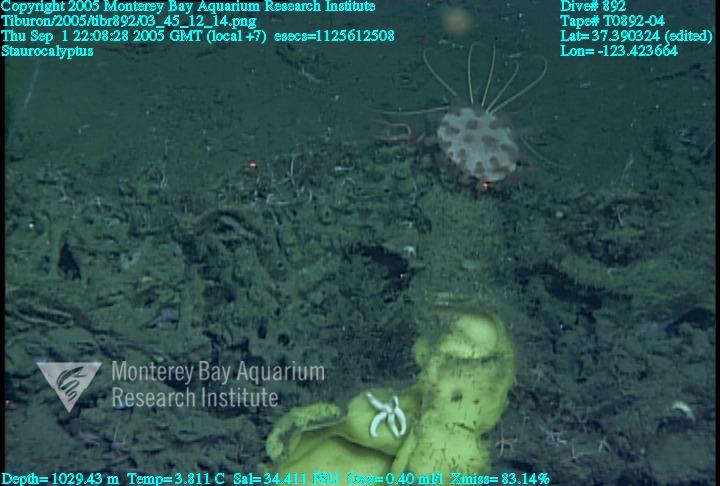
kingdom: Animalia
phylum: Porifera
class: Hexactinellida
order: Lyssacinosida
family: Rossellidae
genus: Staurocalyptus
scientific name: Staurocalyptus
